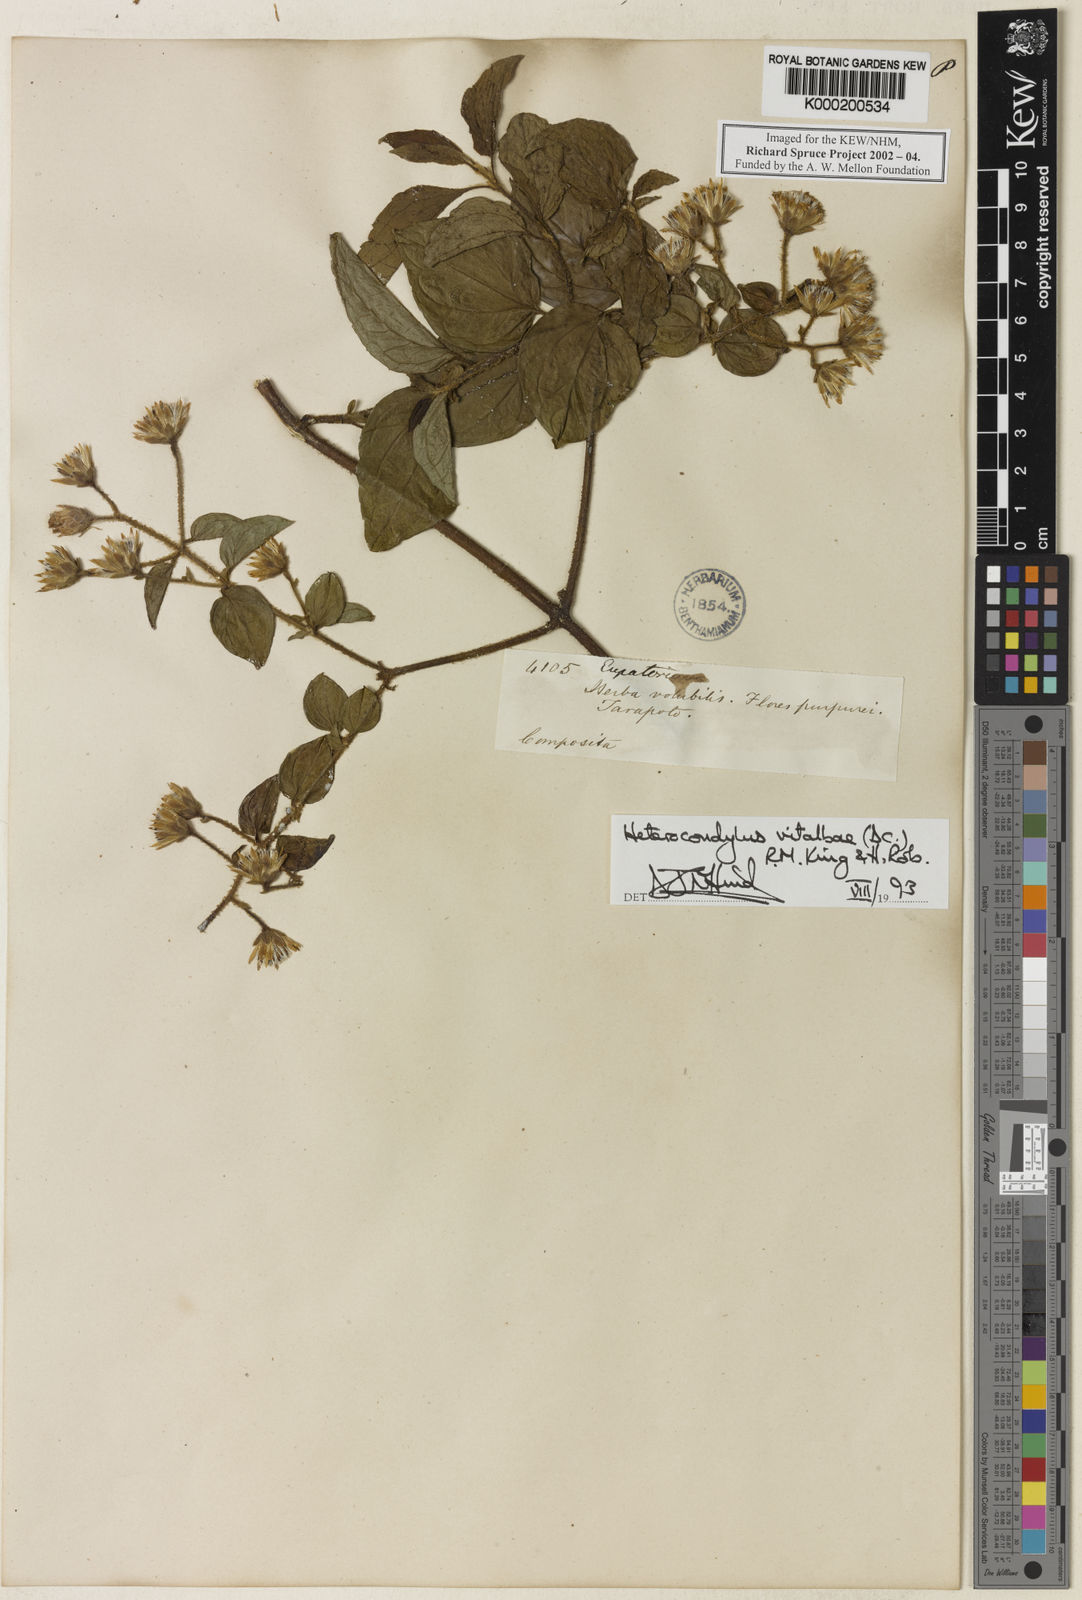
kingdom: Plantae
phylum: Tracheophyta
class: Magnoliopsida
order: Asterales
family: Asteraceae
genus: Heterocondylus
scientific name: Heterocondylus vitalbae
